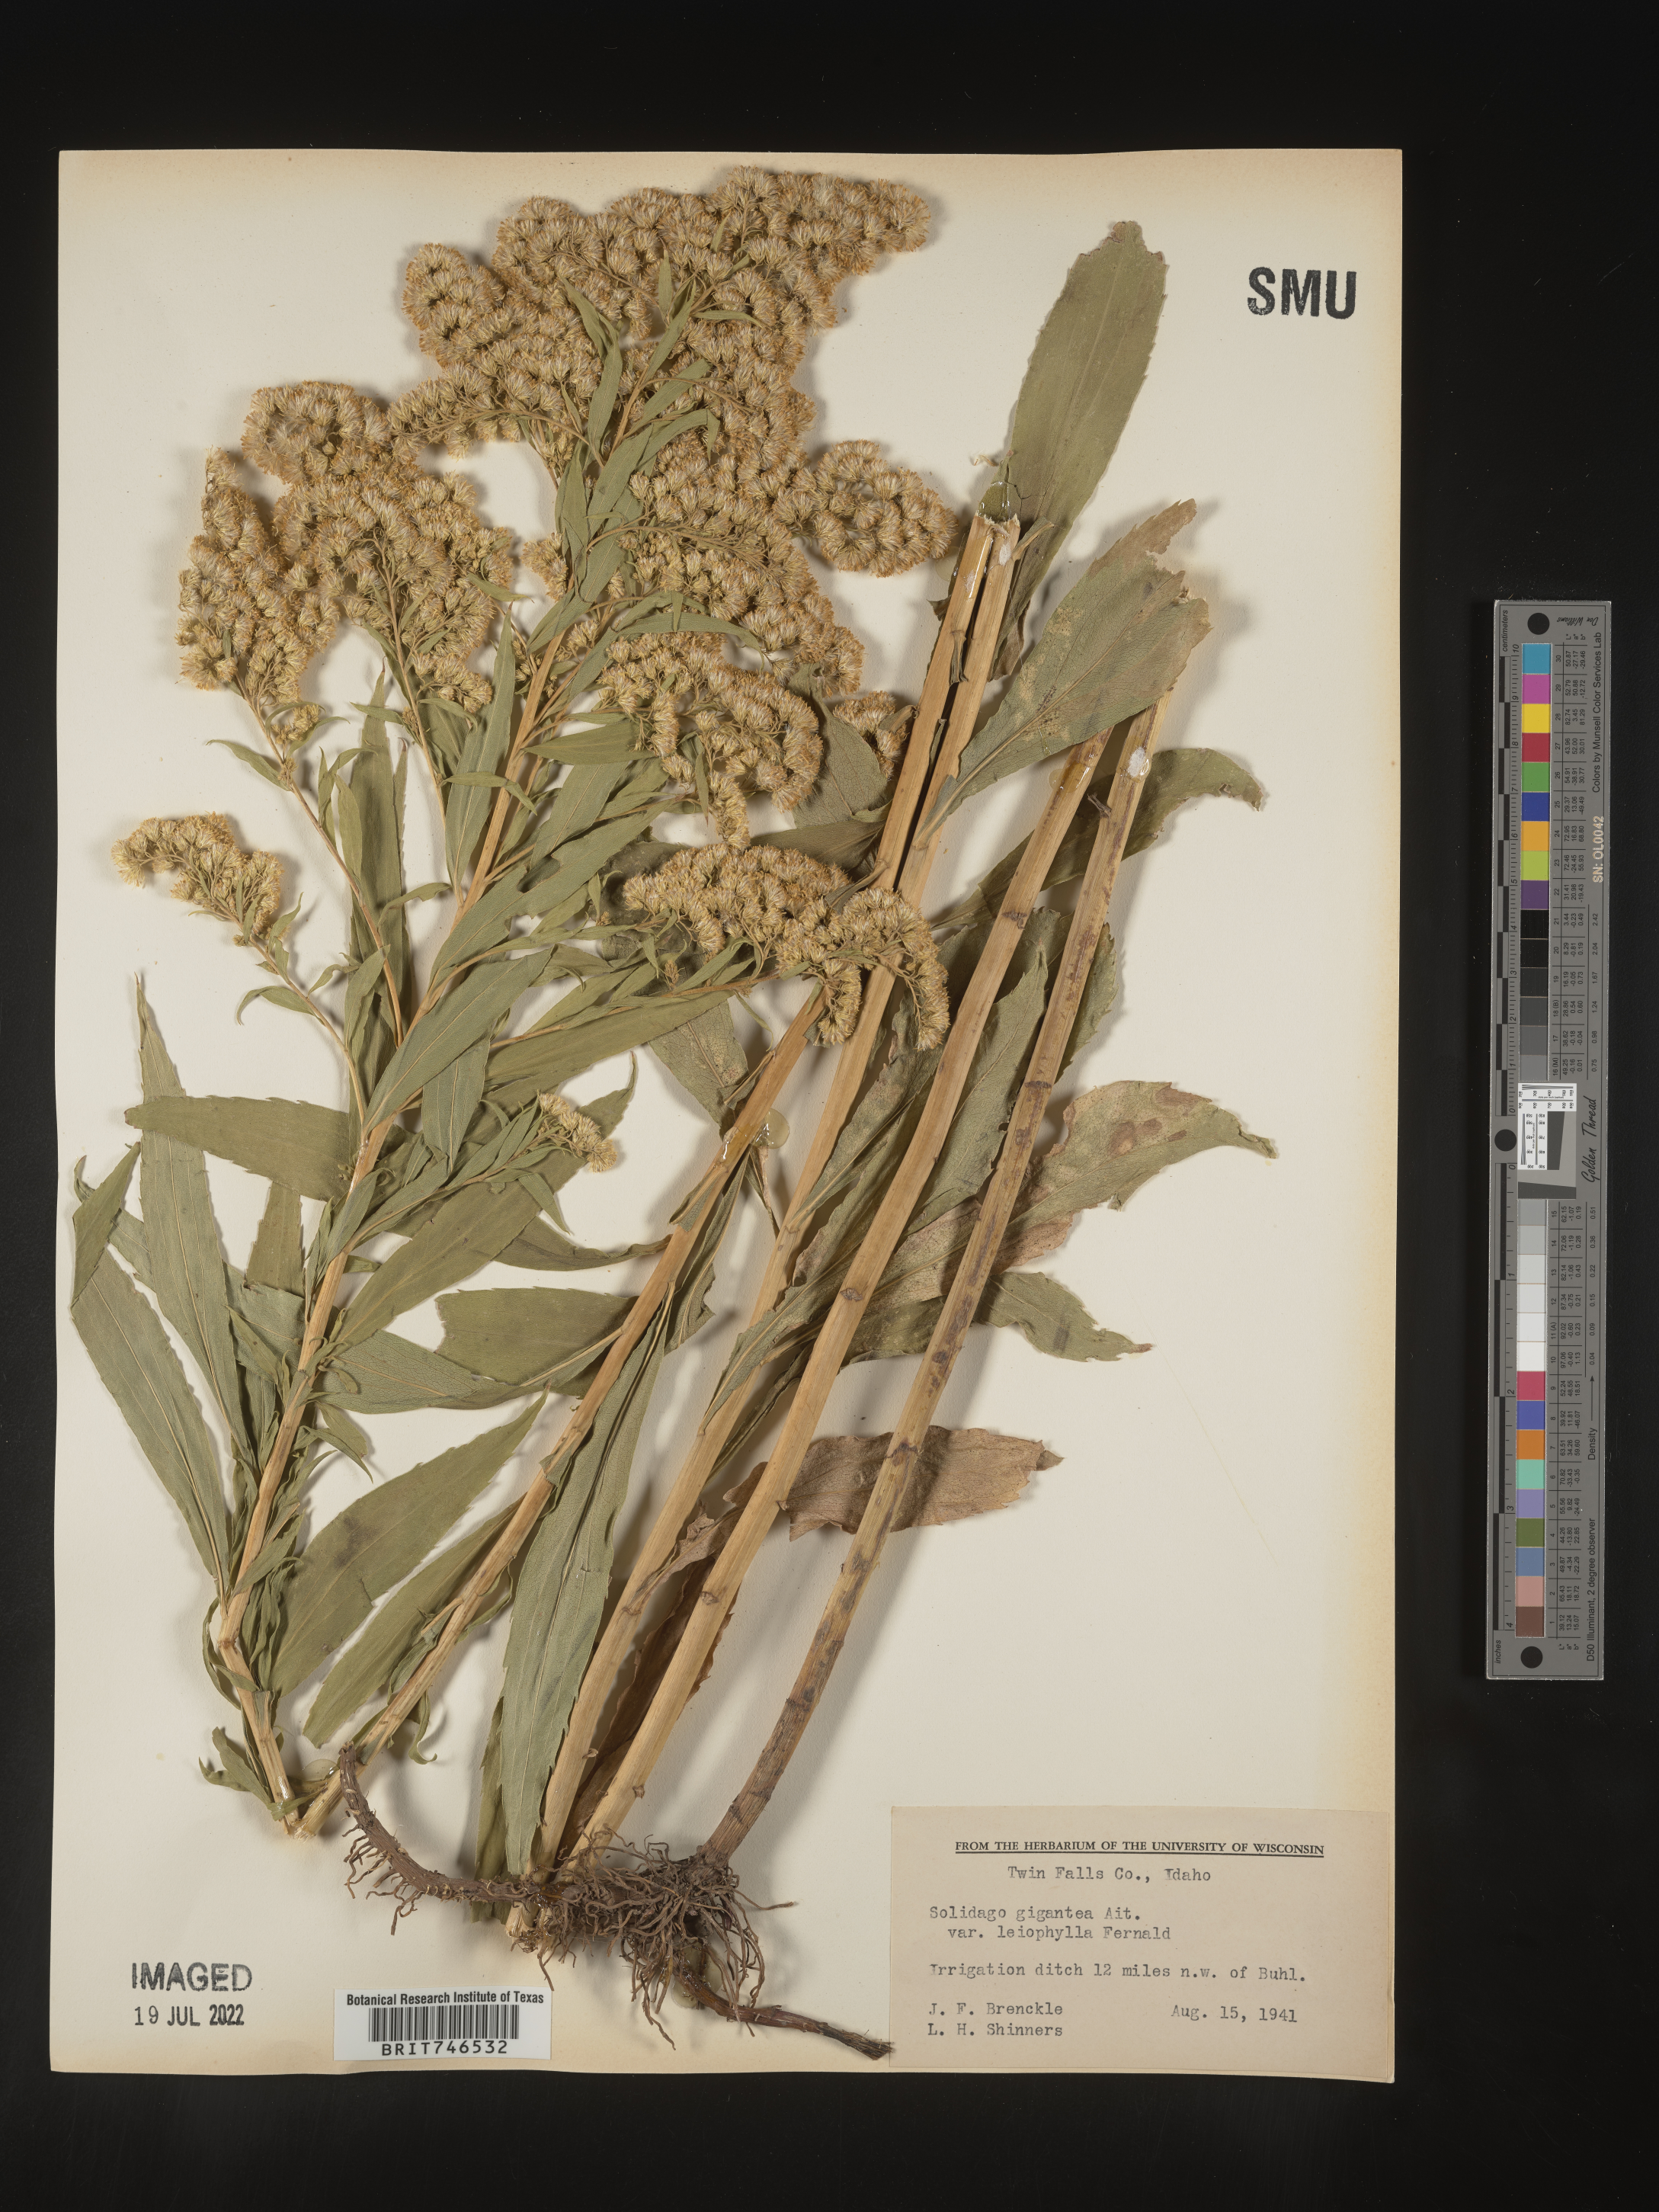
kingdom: Plantae
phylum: Tracheophyta
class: Magnoliopsida
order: Asterales
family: Asteraceae
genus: Solidago
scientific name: Solidago gigantea
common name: Giant goldenrod
